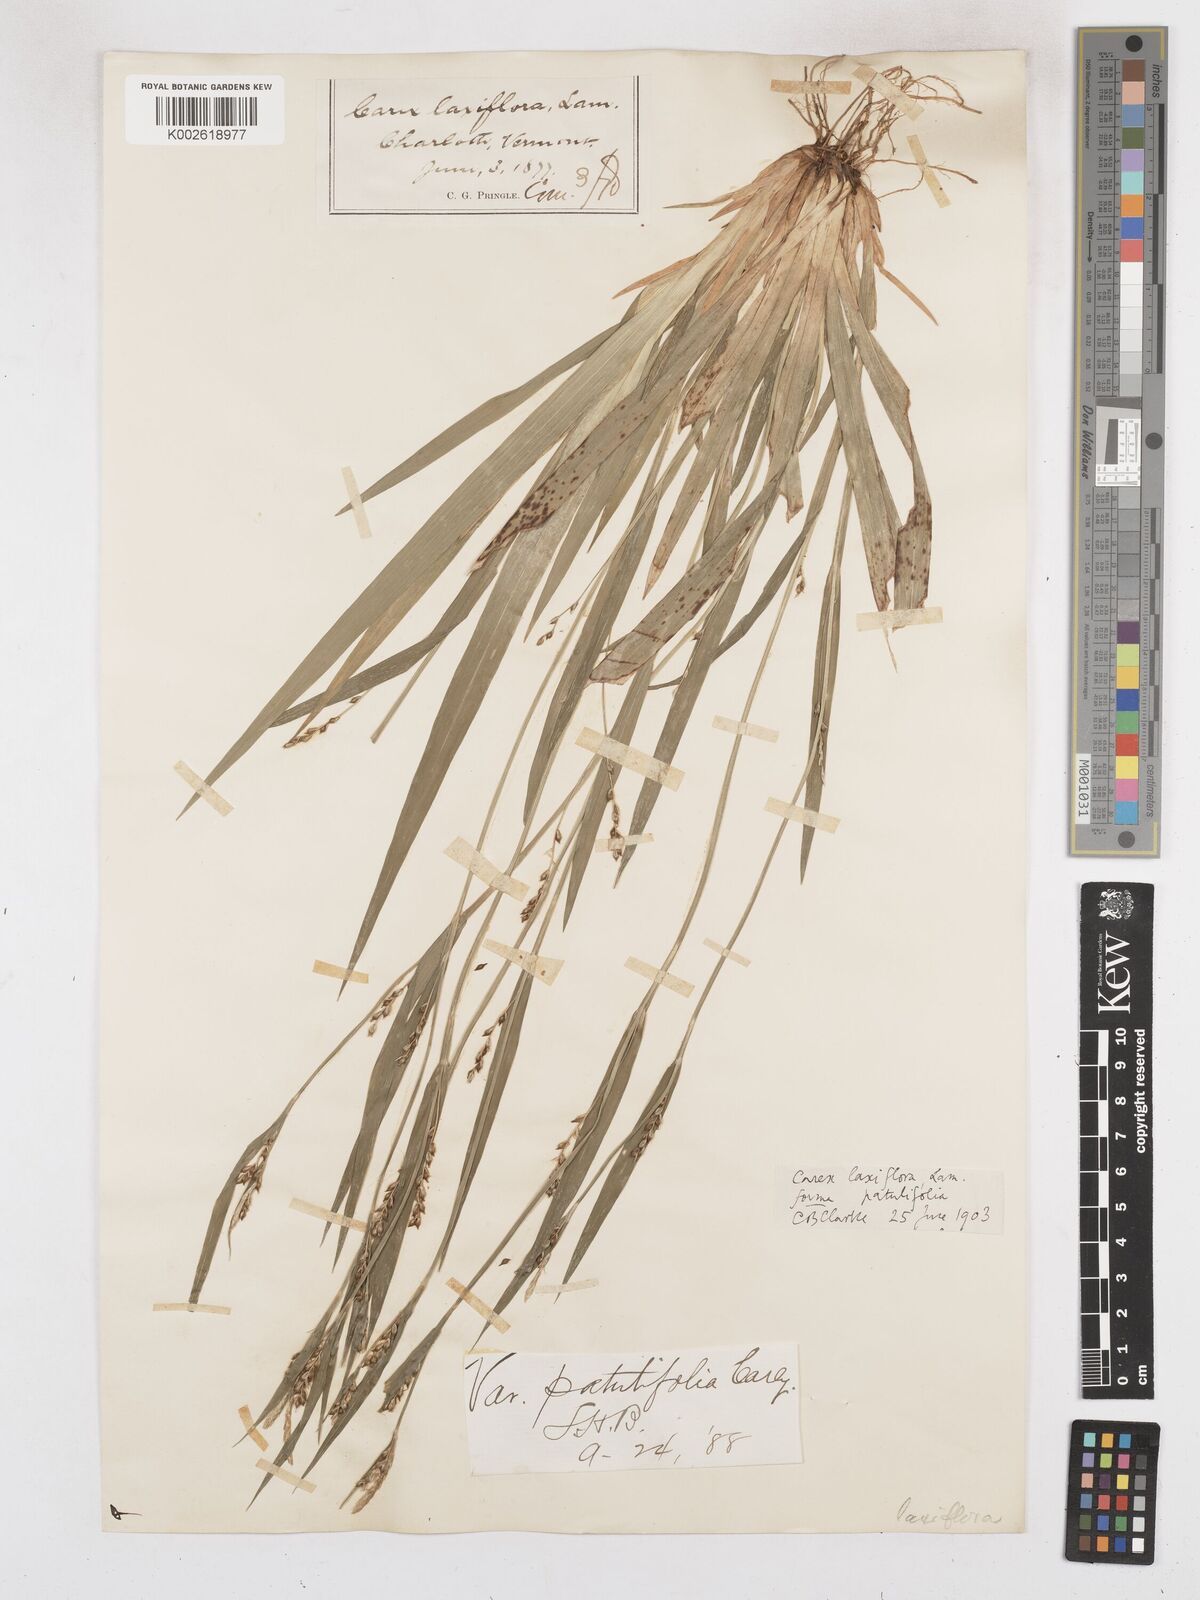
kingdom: Plantae
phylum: Tracheophyta
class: Liliopsida
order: Poales
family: Cyperaceae
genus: Carex
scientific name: Carex striatula
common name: Lined sedge
